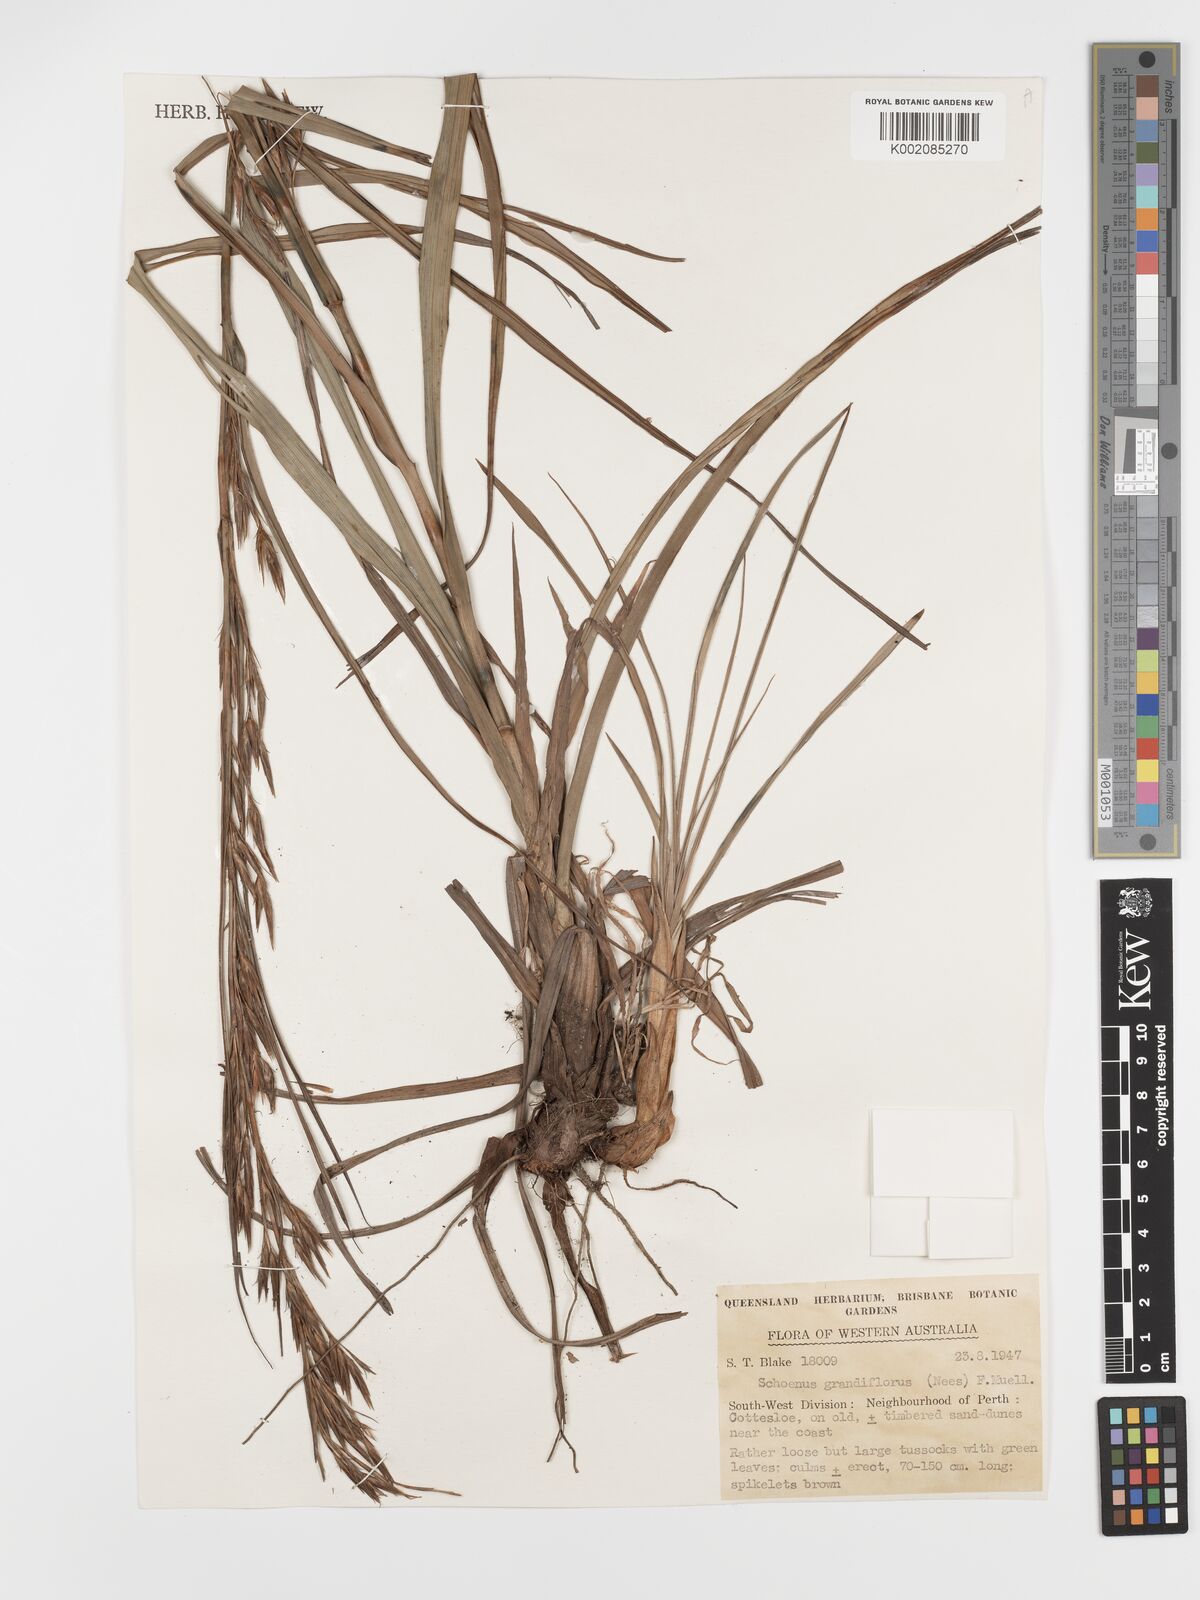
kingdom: Plantae
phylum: Tracheophyta
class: Liliopsida
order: Poales
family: Cyperaceae
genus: Schoenus
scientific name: Schoenus grandiflorus
